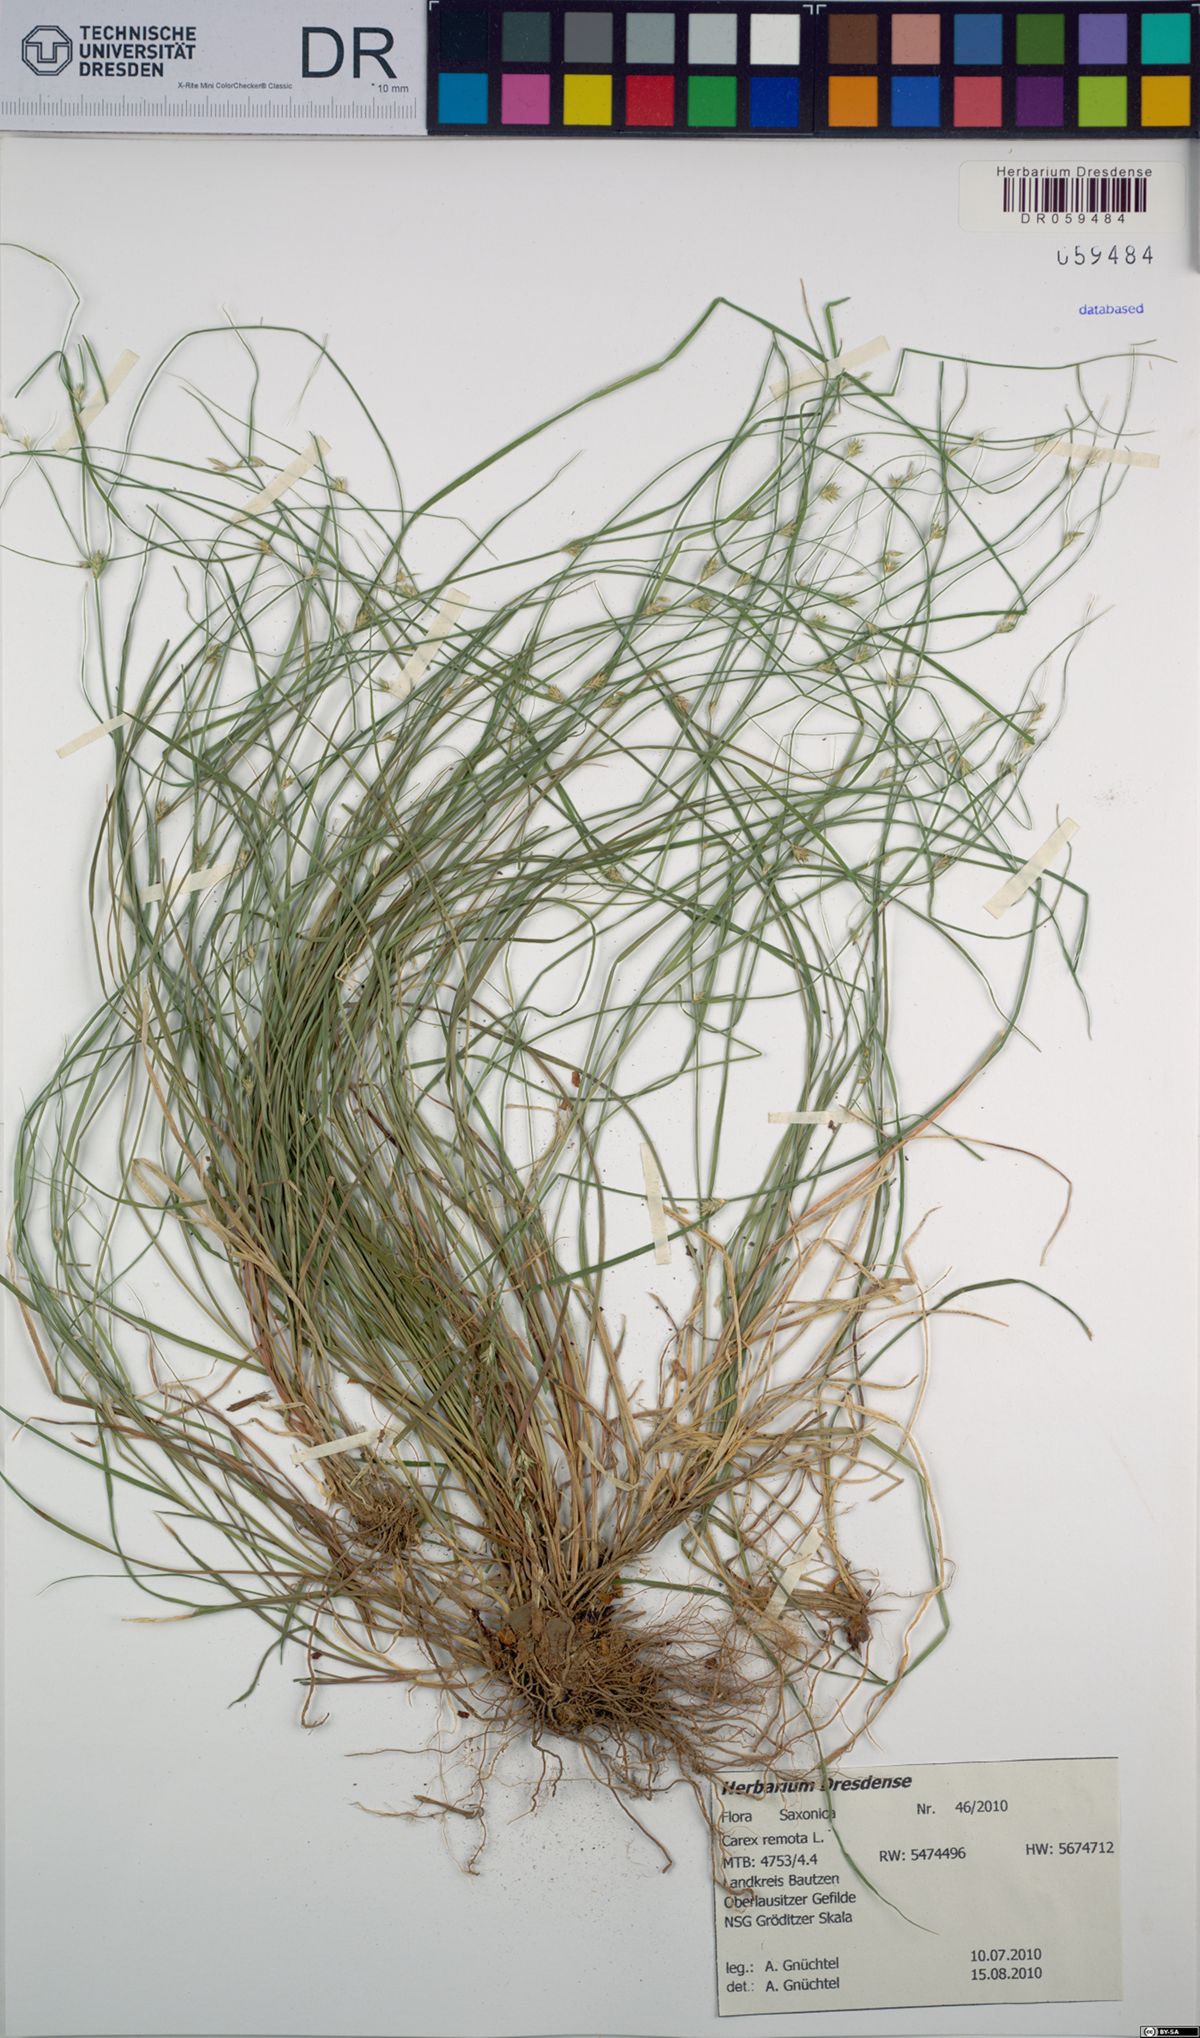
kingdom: Plantae
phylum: Tracheophyta
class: Liliopsida
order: Poales
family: Cyperaceae
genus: Carex
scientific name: Carex remota
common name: Remote sedge
